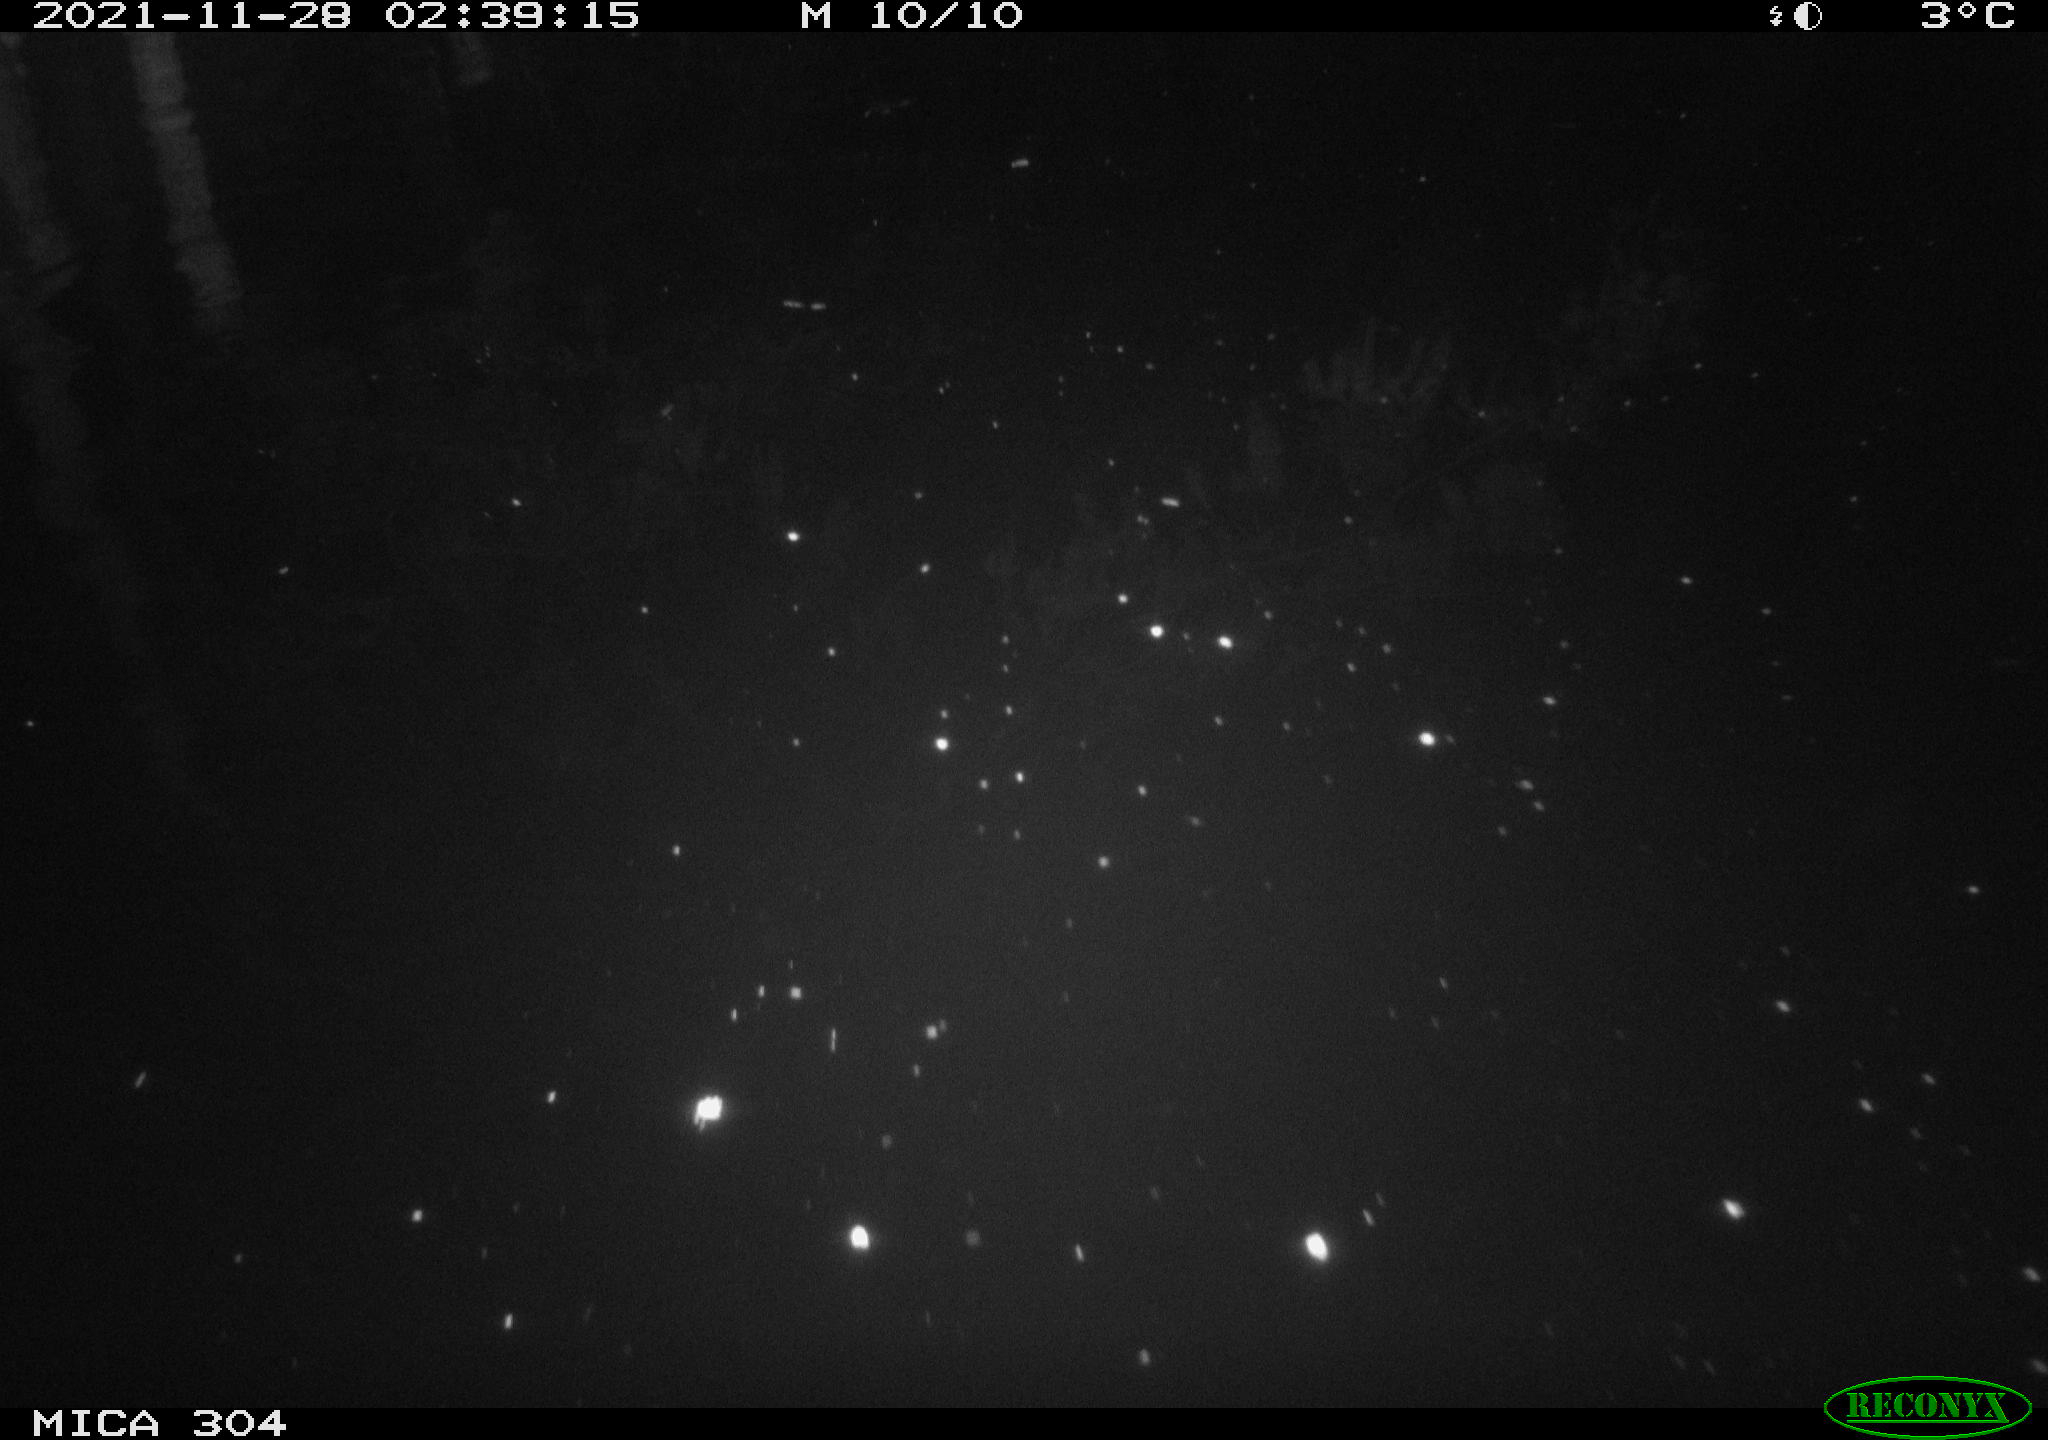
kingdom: Animalia
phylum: Chordata
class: Mammalia
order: Rodentia
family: Muridae
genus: Rattus
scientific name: Rattus norvegicus
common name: Brown rat
